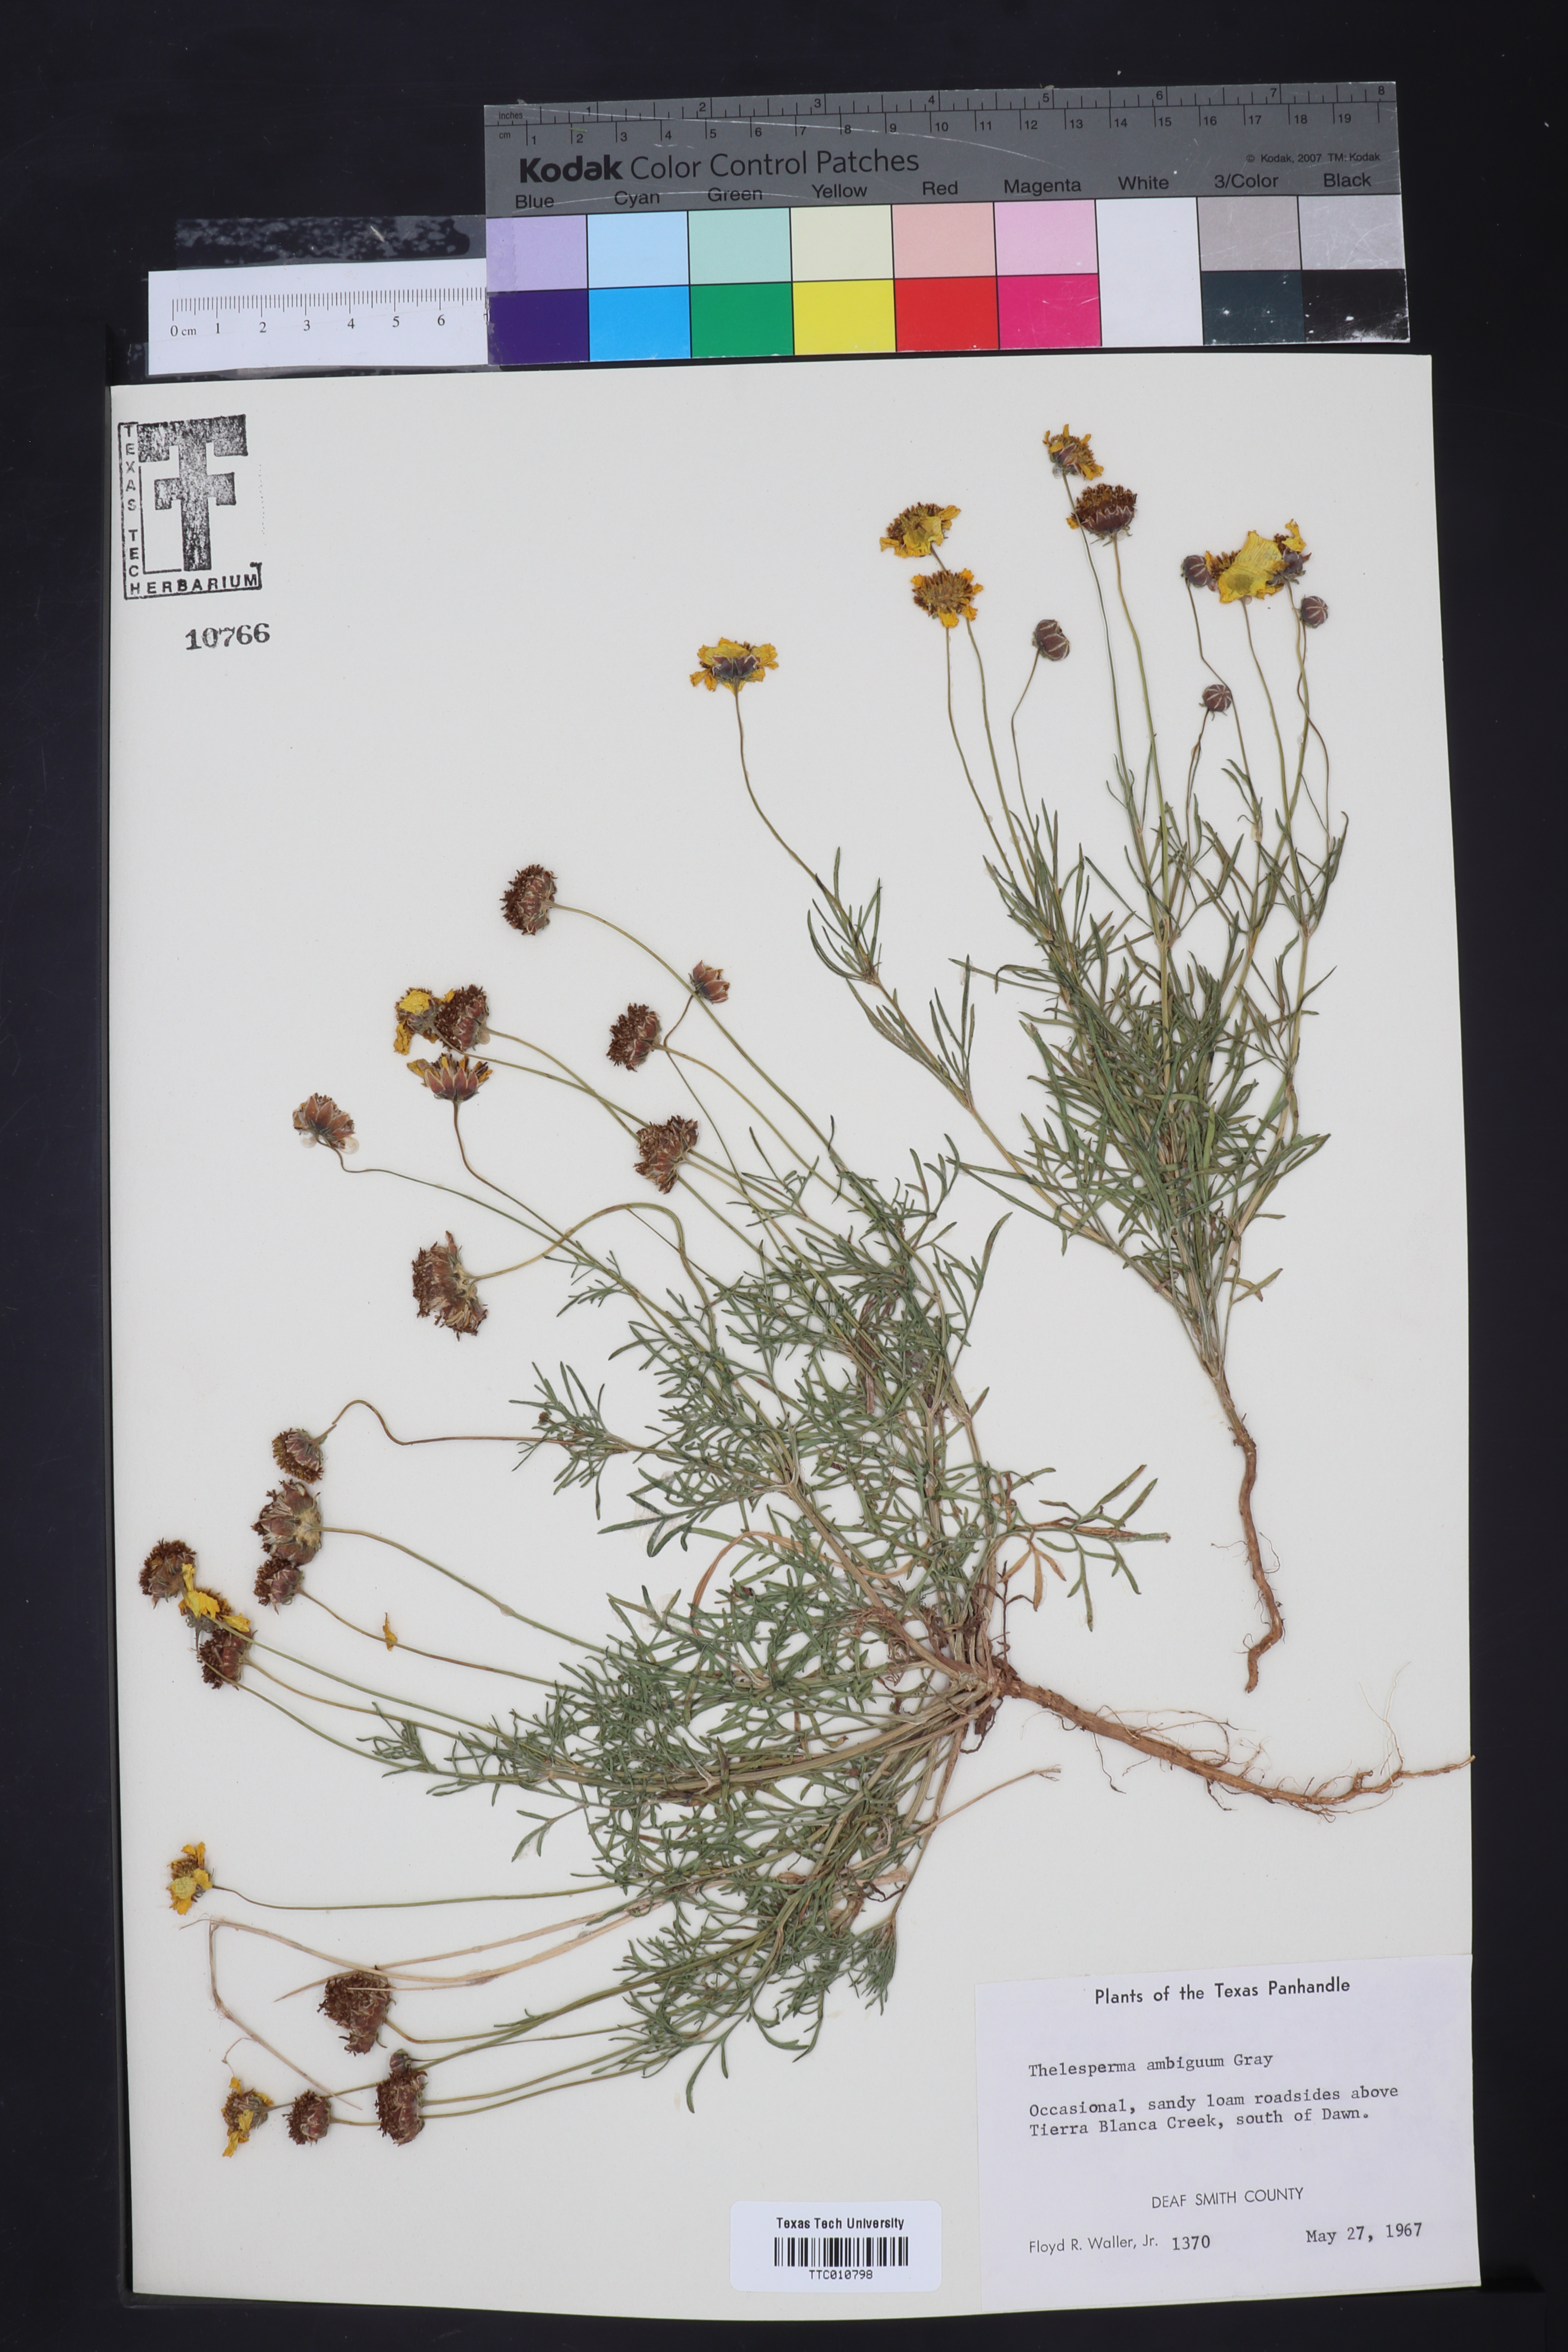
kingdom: Plantae
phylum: Tracheophyta
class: Magnoliopsida
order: Asterales
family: Asteraceae
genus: Thelesperma
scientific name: Thelesperma ambiguum
